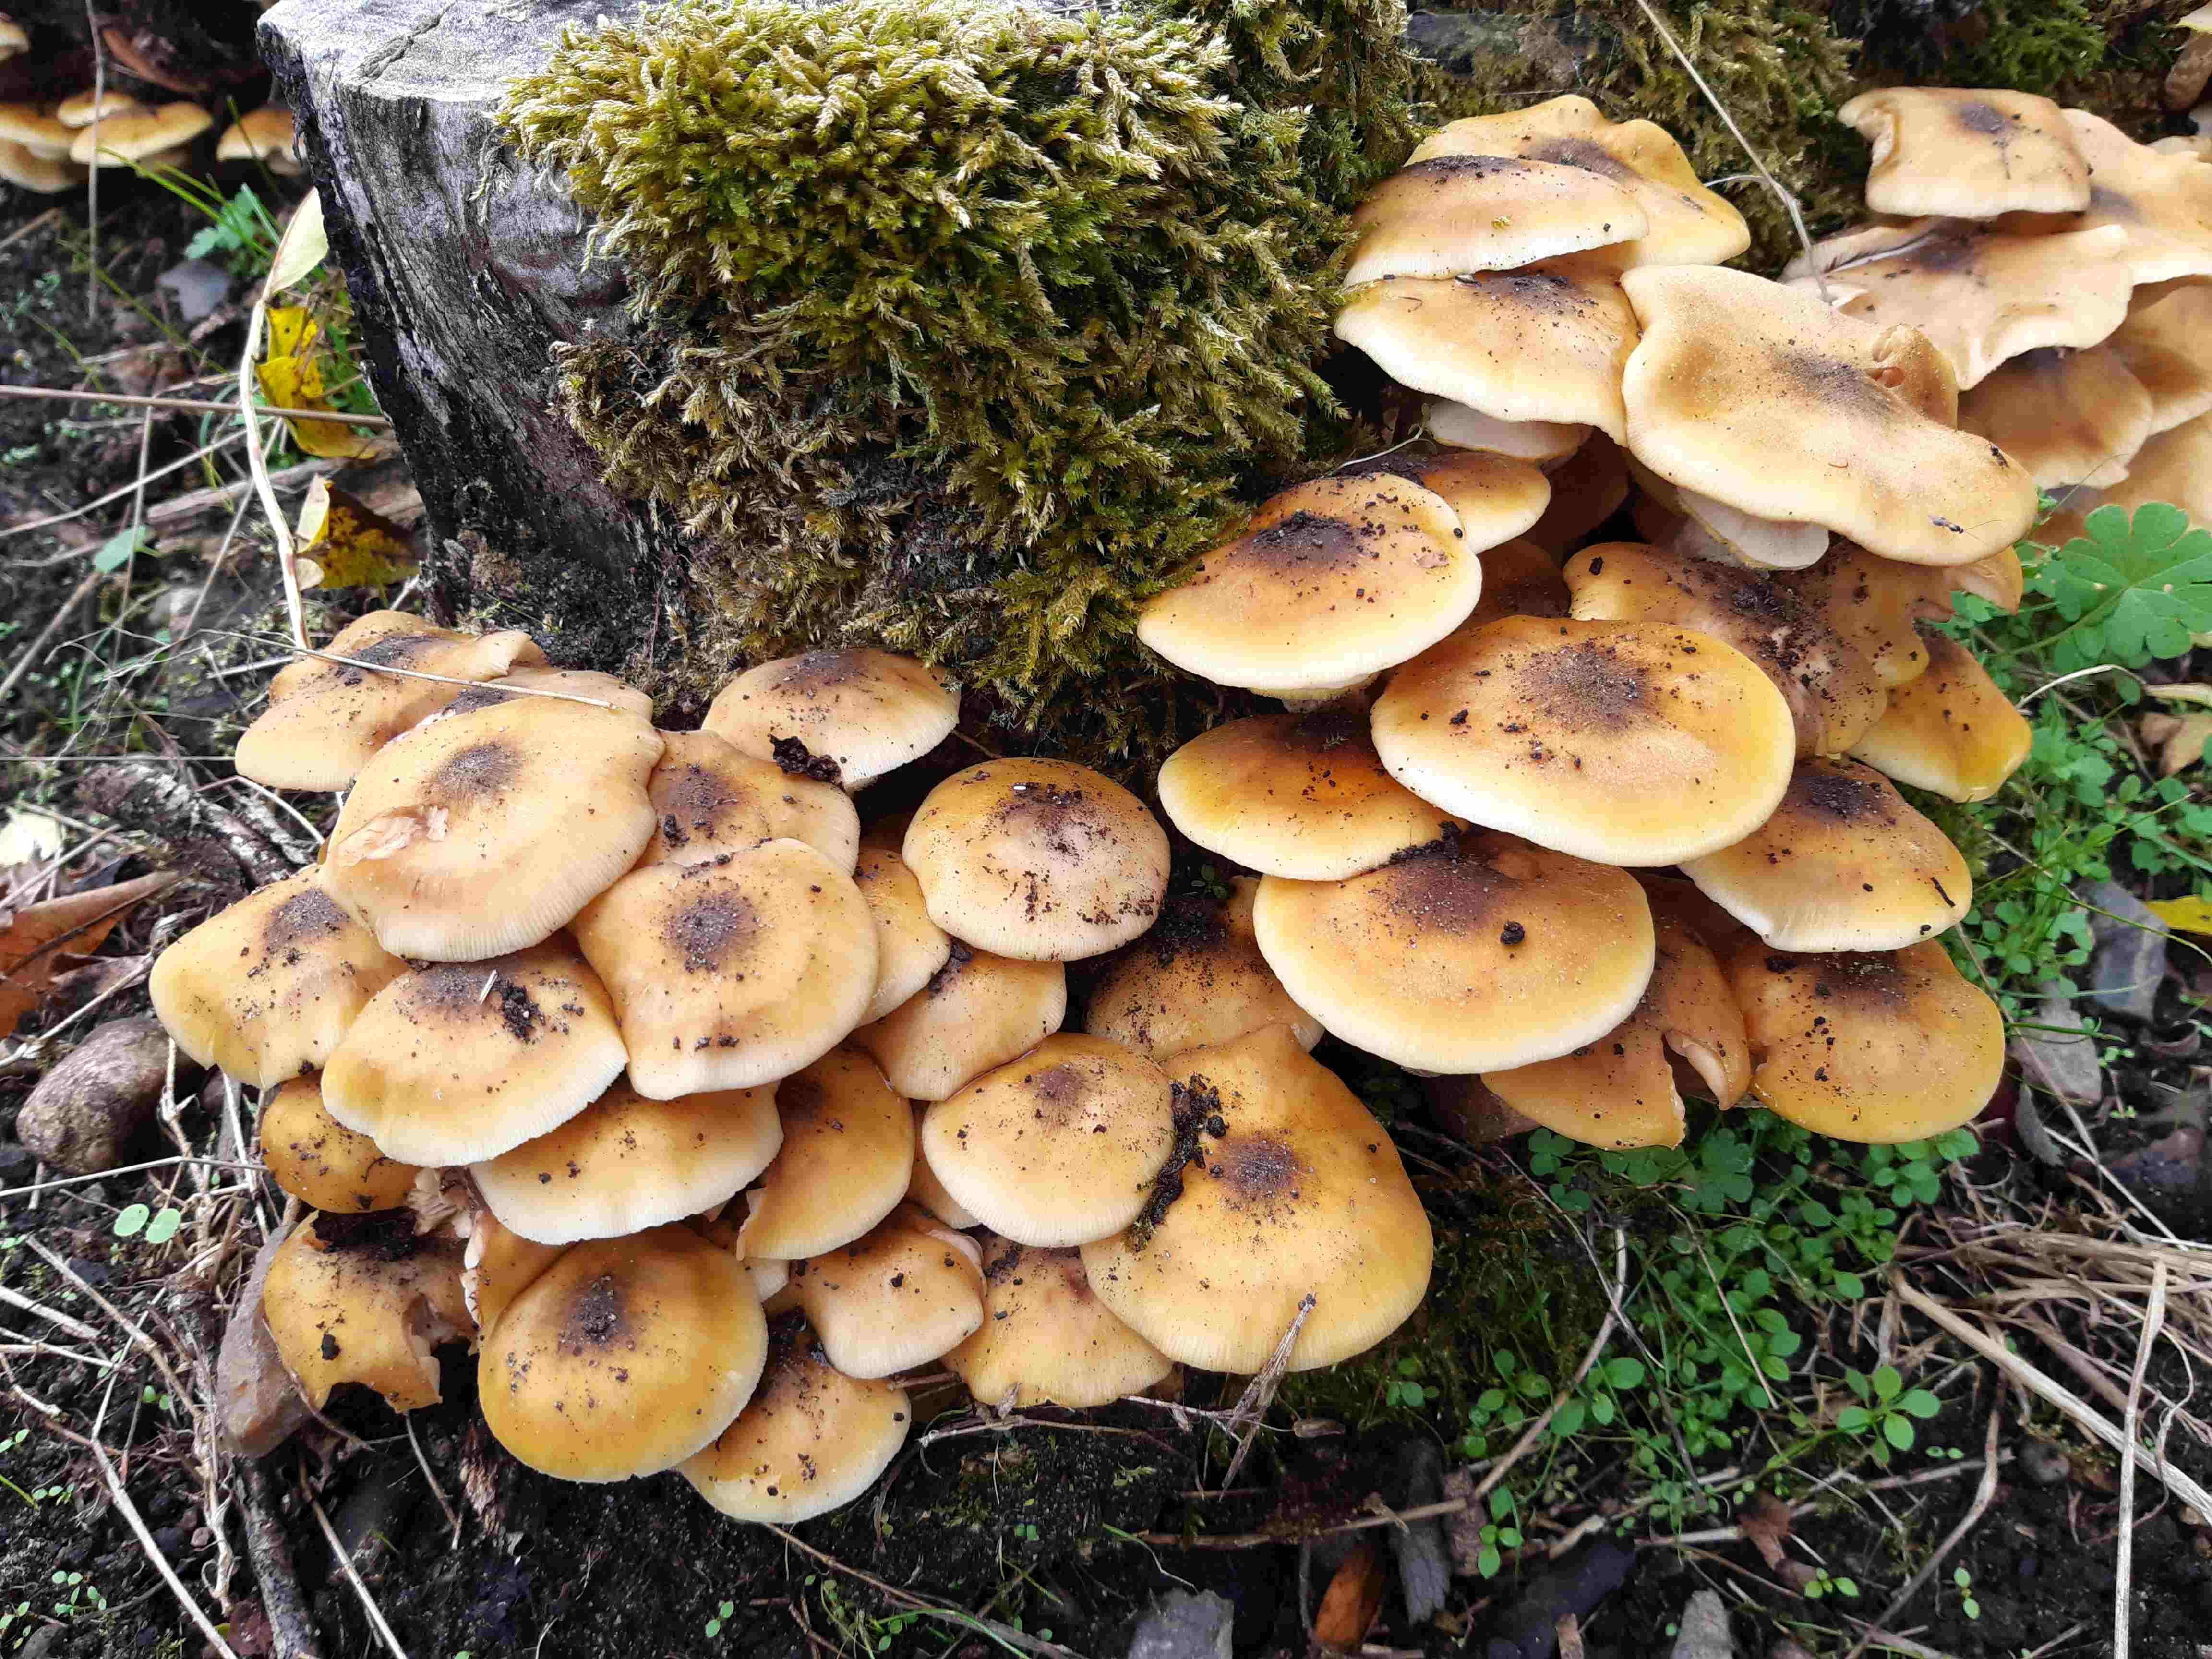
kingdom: Fungi
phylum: Basidiomycota
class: Agaricomycetes
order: Agaricales
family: Physalacriaceae
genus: Armillaria
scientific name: Armillaria mellea
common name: ægte honningsvamp
